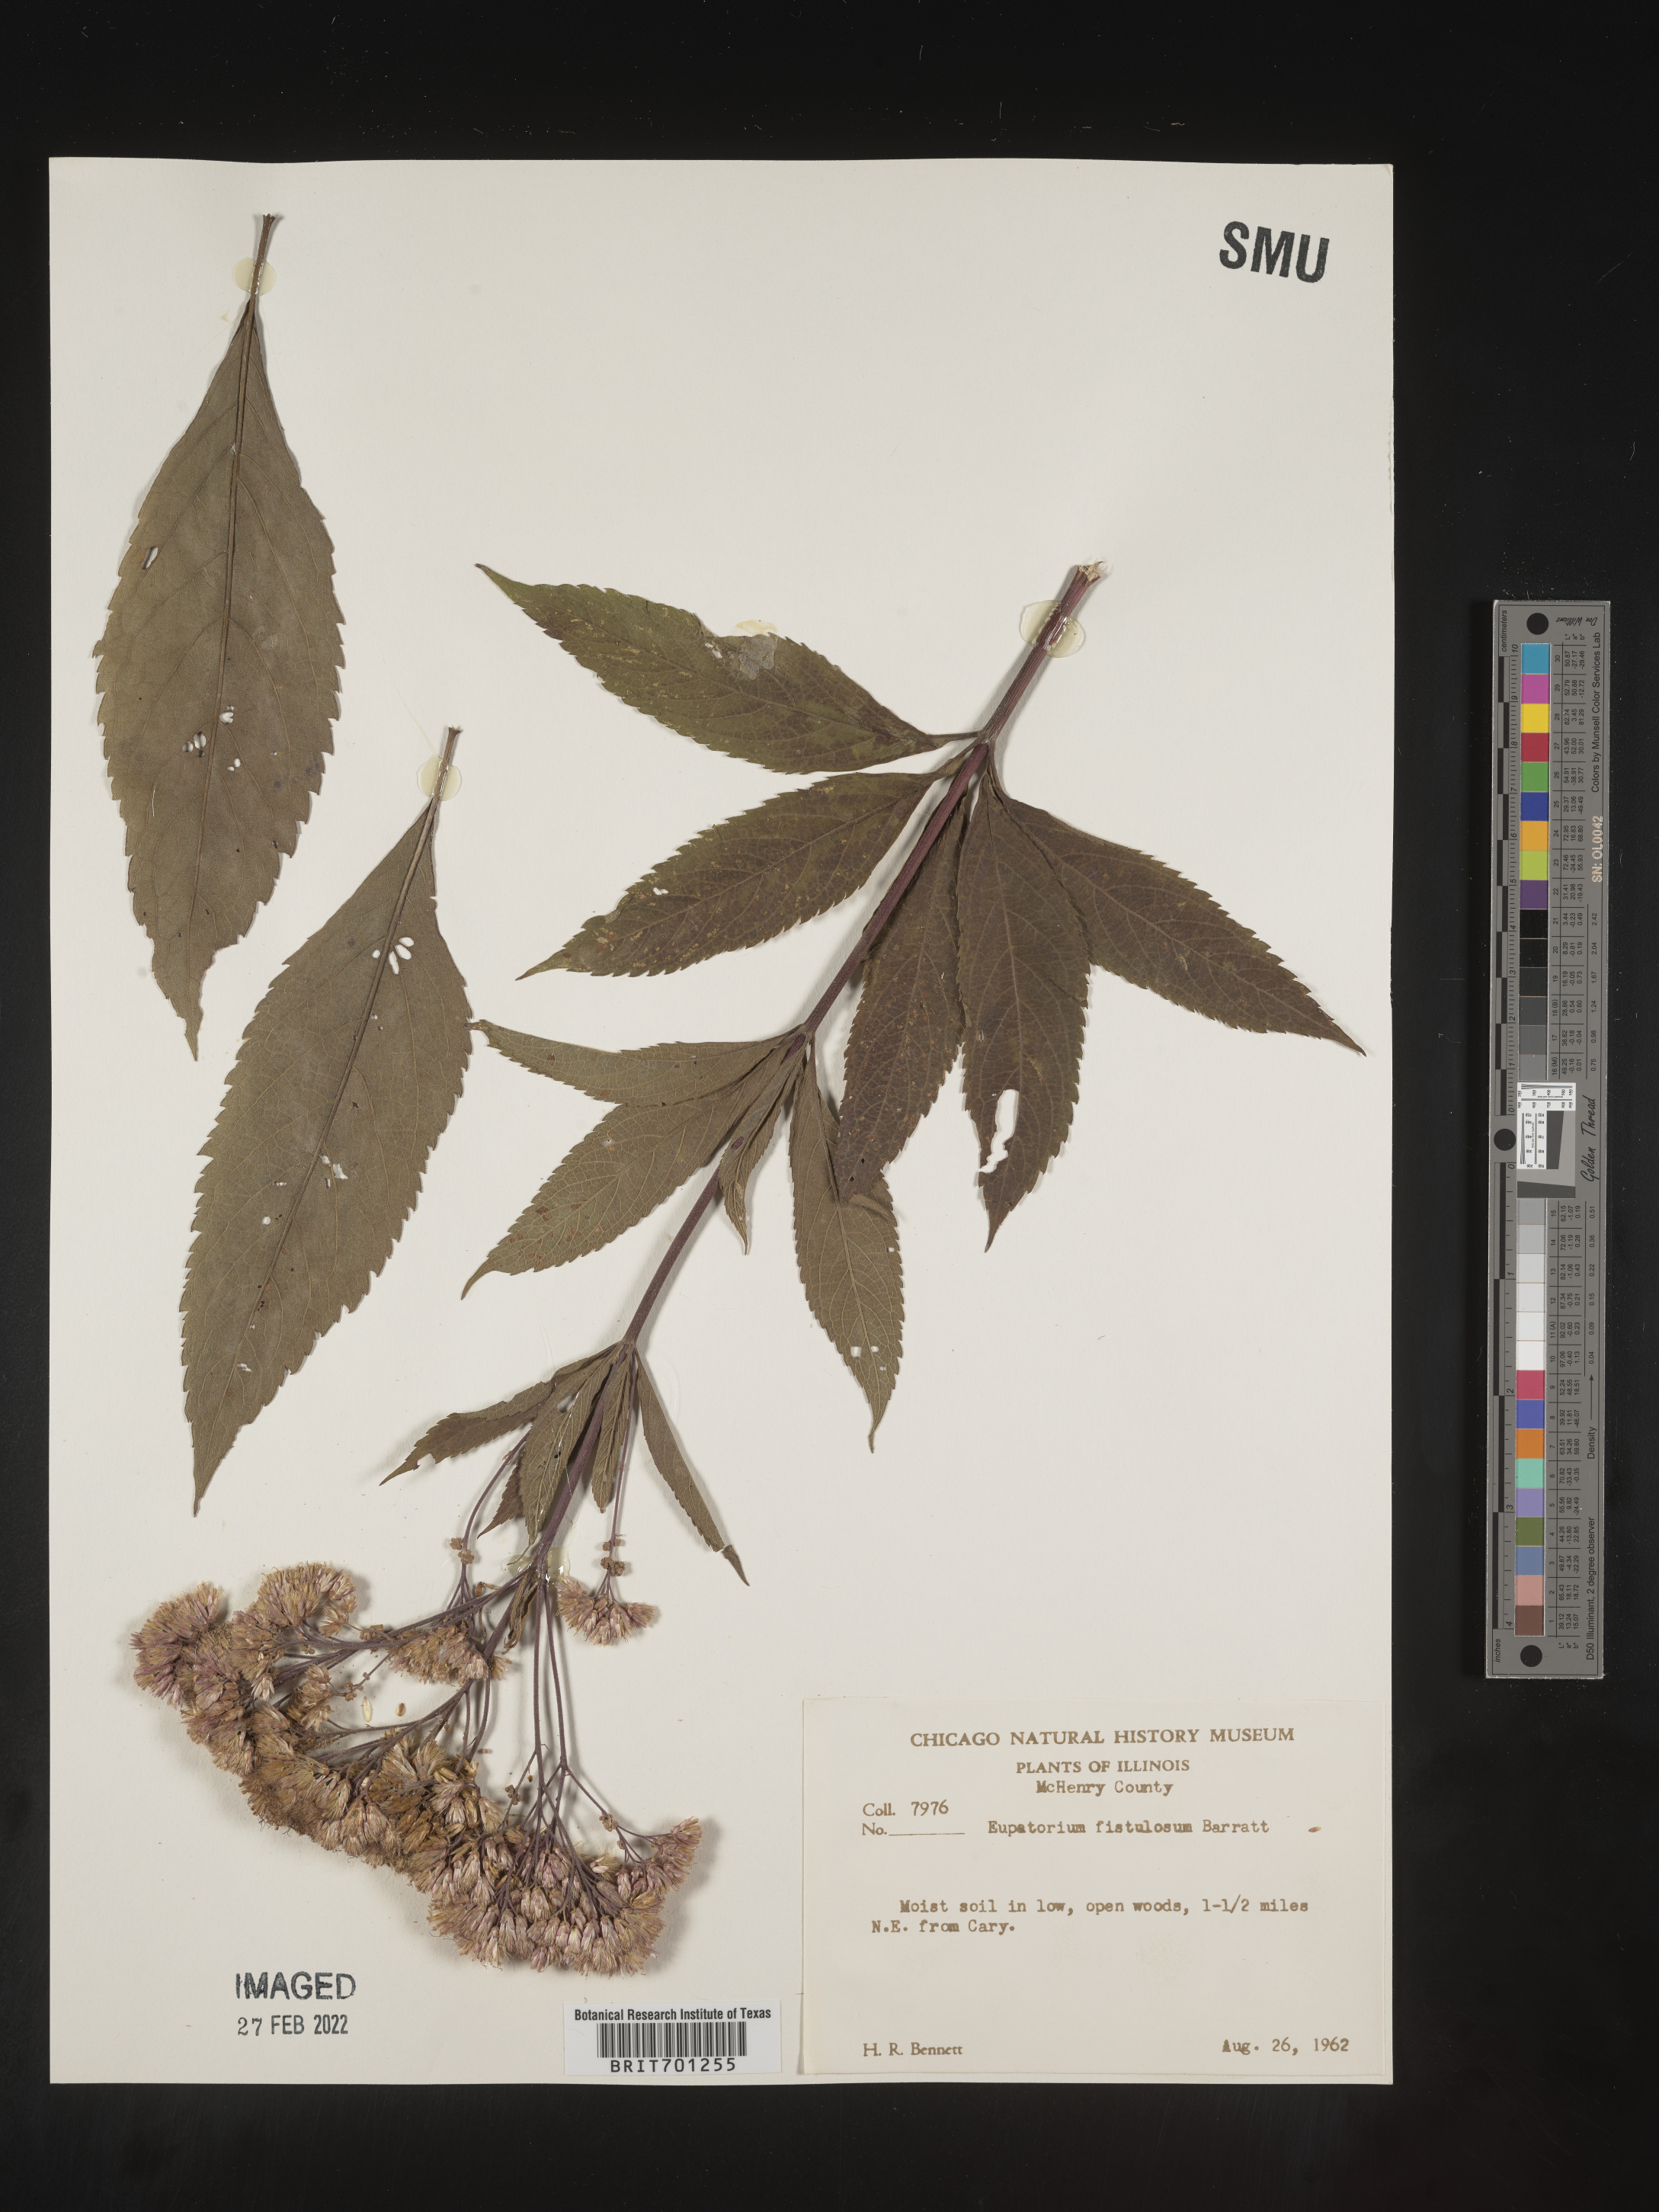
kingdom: Plantae
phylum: Tracheophyta
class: Magnoliopsida
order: Asterales
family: Asteraceae
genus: Eutrochium
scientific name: Eutrochium fistulosum
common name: Trumpetweed
